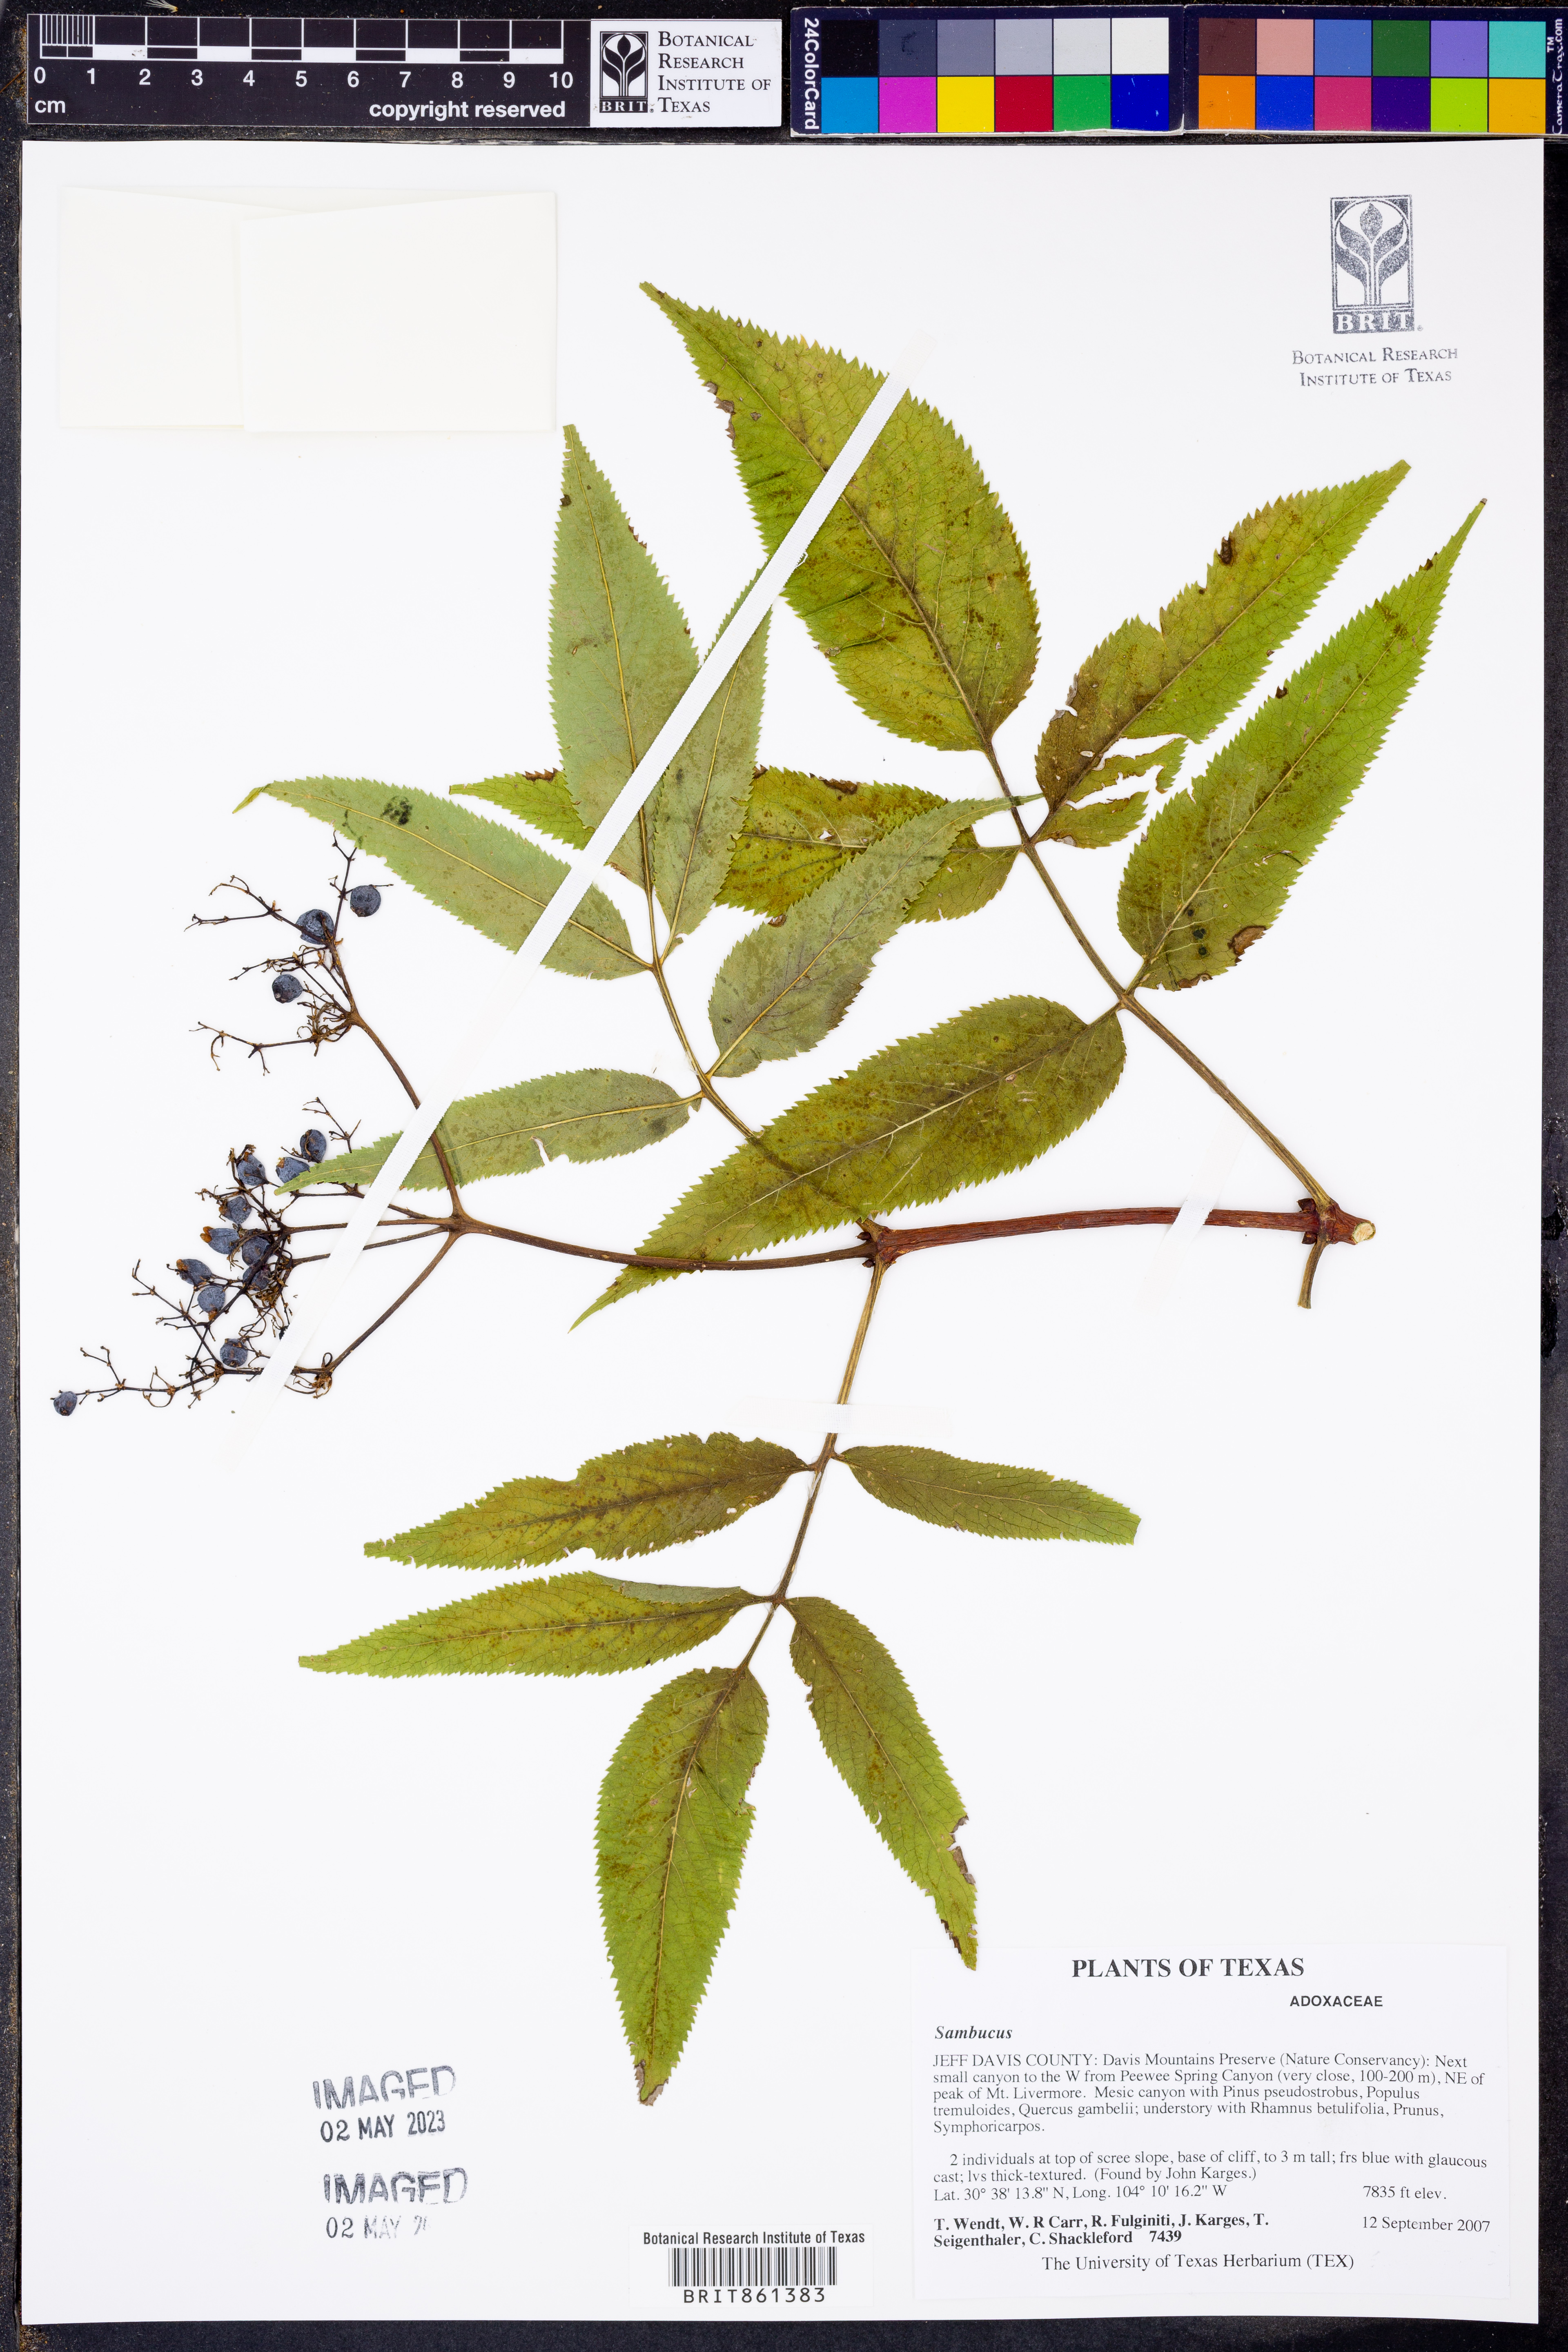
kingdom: Plantae
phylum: Tracheophyta
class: Magnoliopsida
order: Dipsacales
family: Viburnaceae
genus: Sambucus
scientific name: Sambucus
